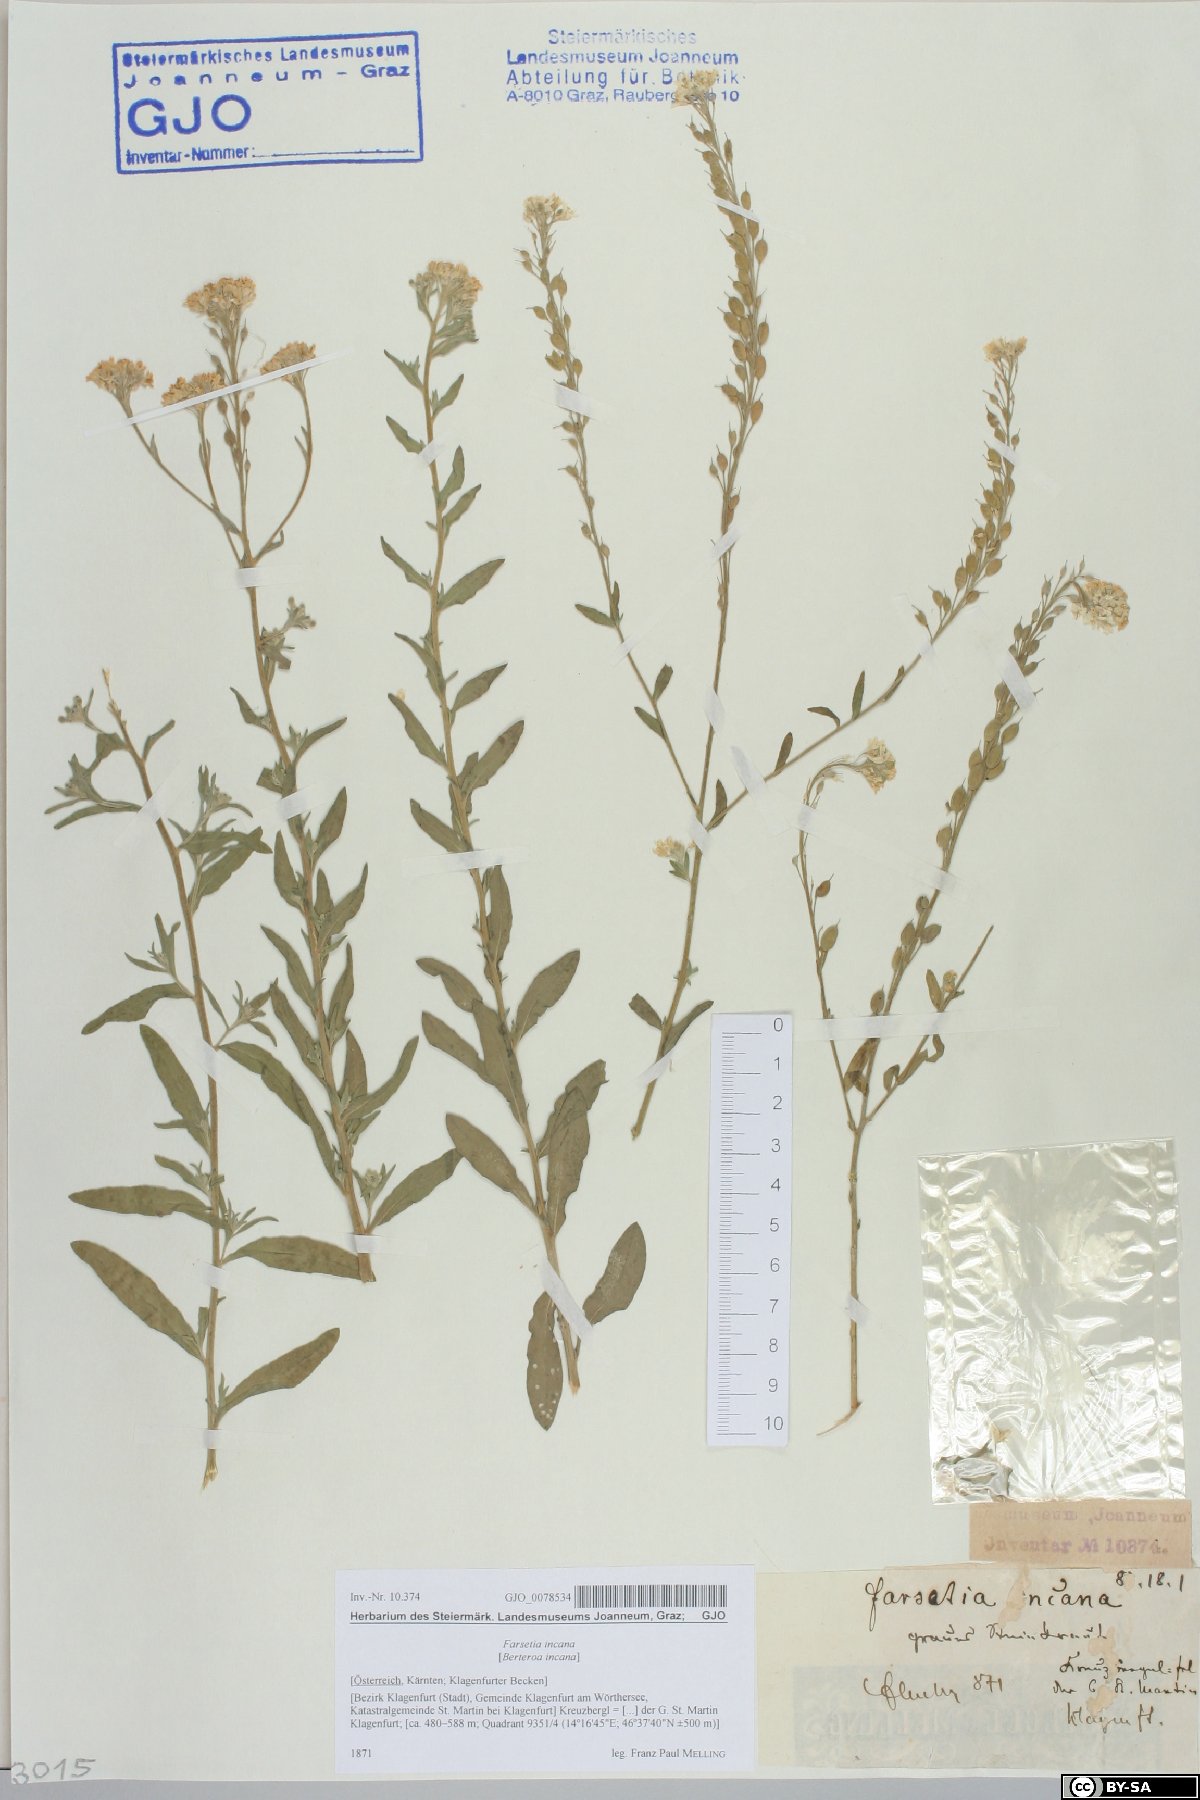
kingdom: Plantae
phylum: Tracheophyta
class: Magnoliopsida
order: Brassicales
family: Brassicaceae
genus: Berteroa
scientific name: Berteroa incana
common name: Hoary alison
